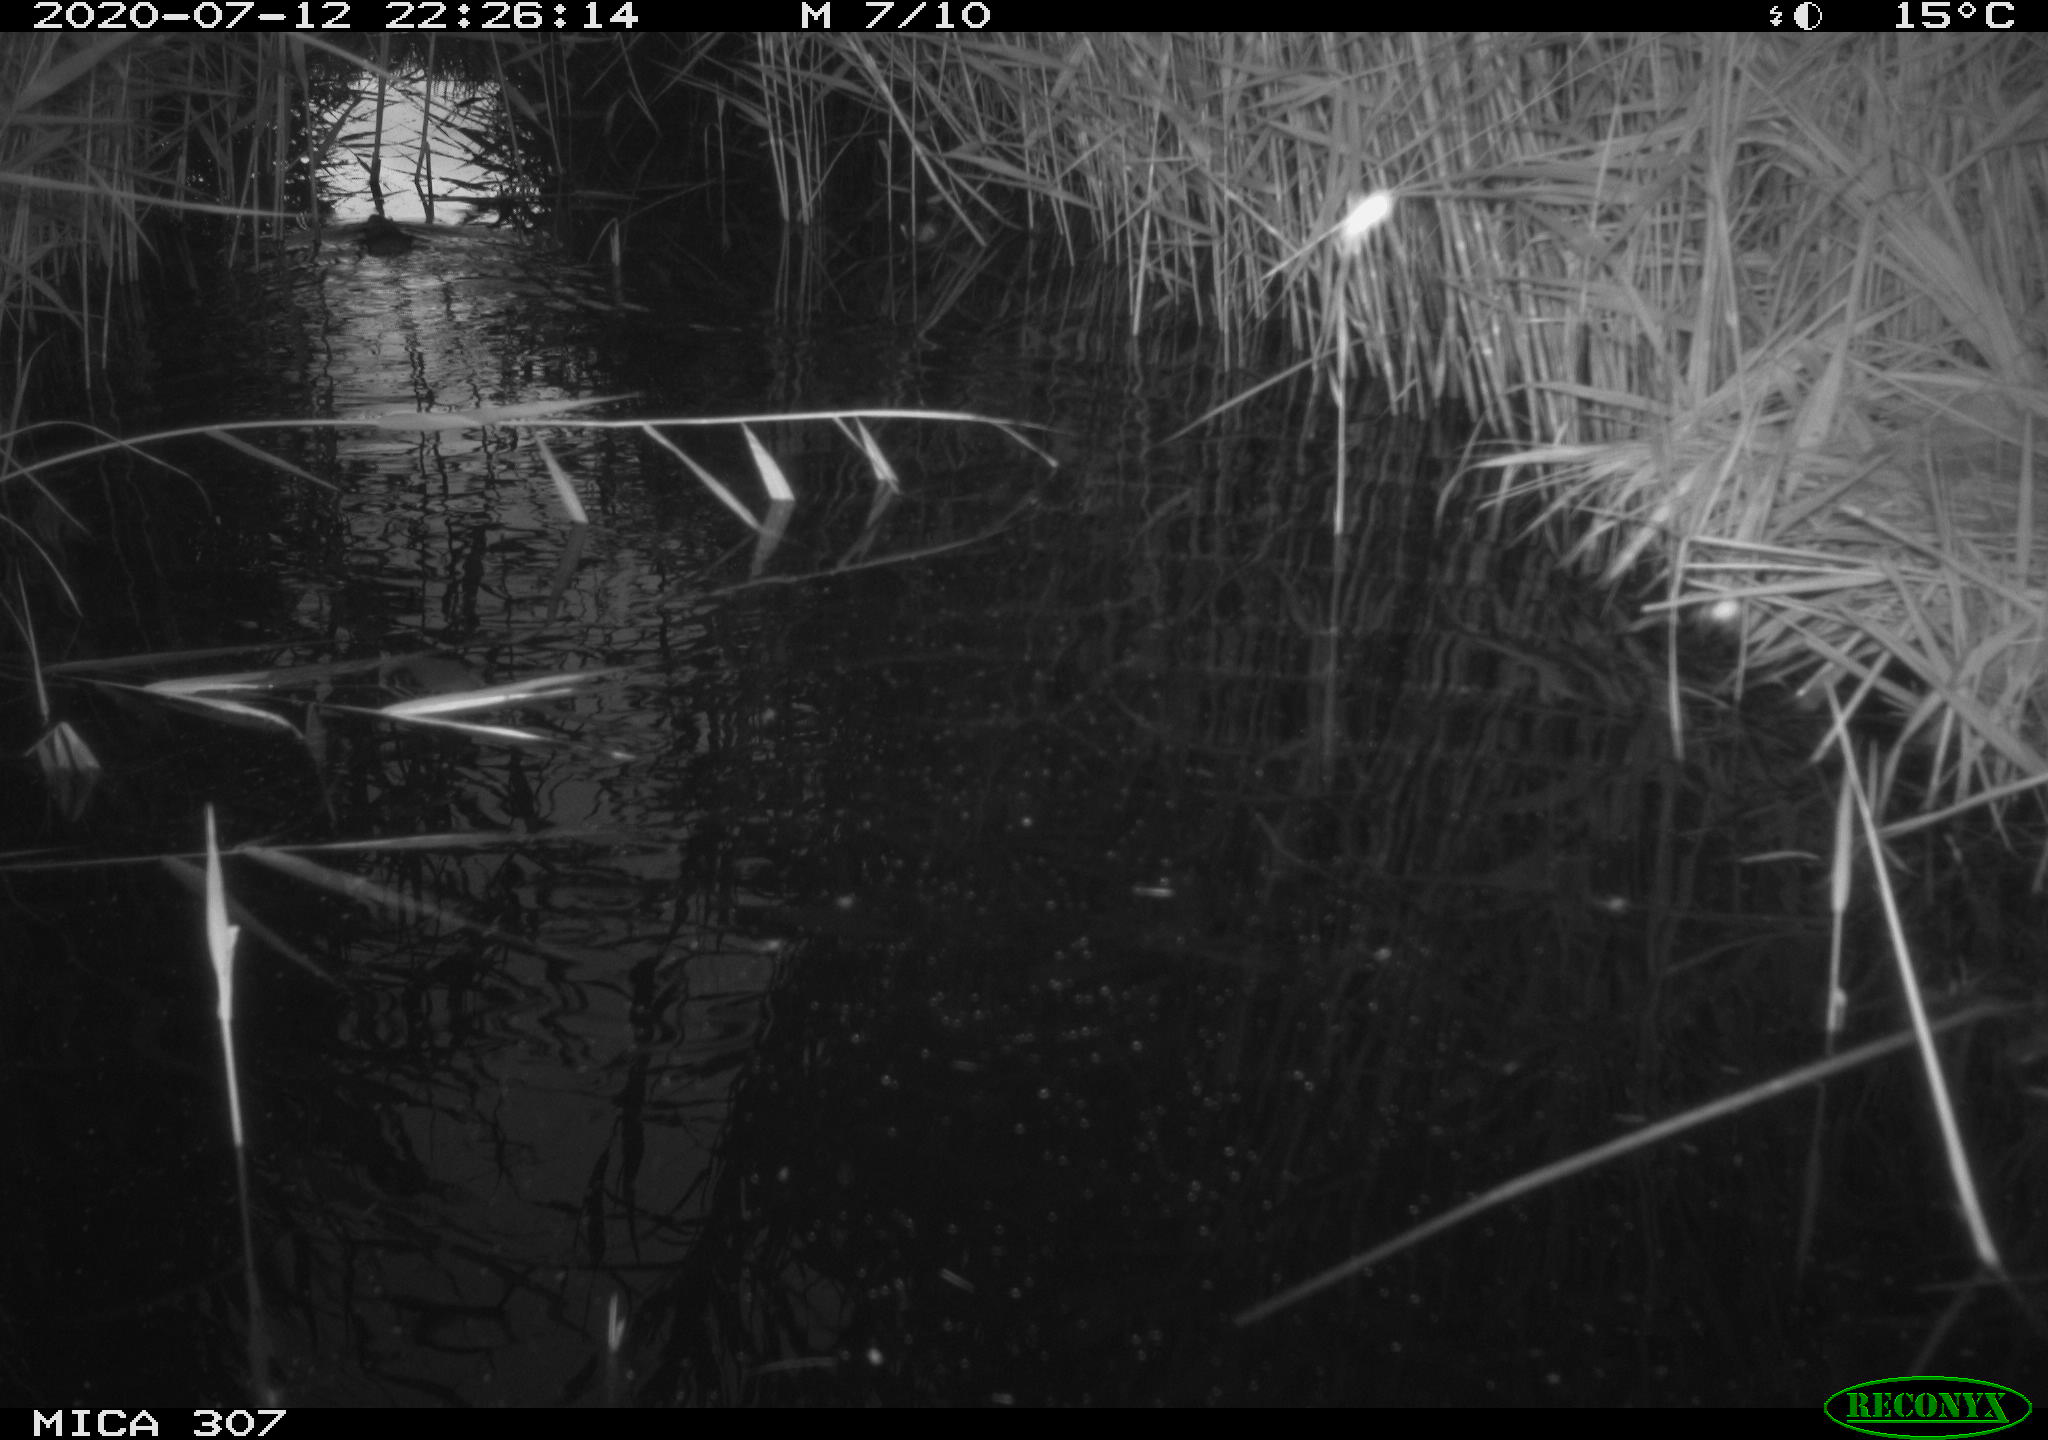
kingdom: Animalia
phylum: Chordata
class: Aves
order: Anseriformes
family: Anatidae
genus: Anas
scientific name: Anas platyrhynchos
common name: Mallard
